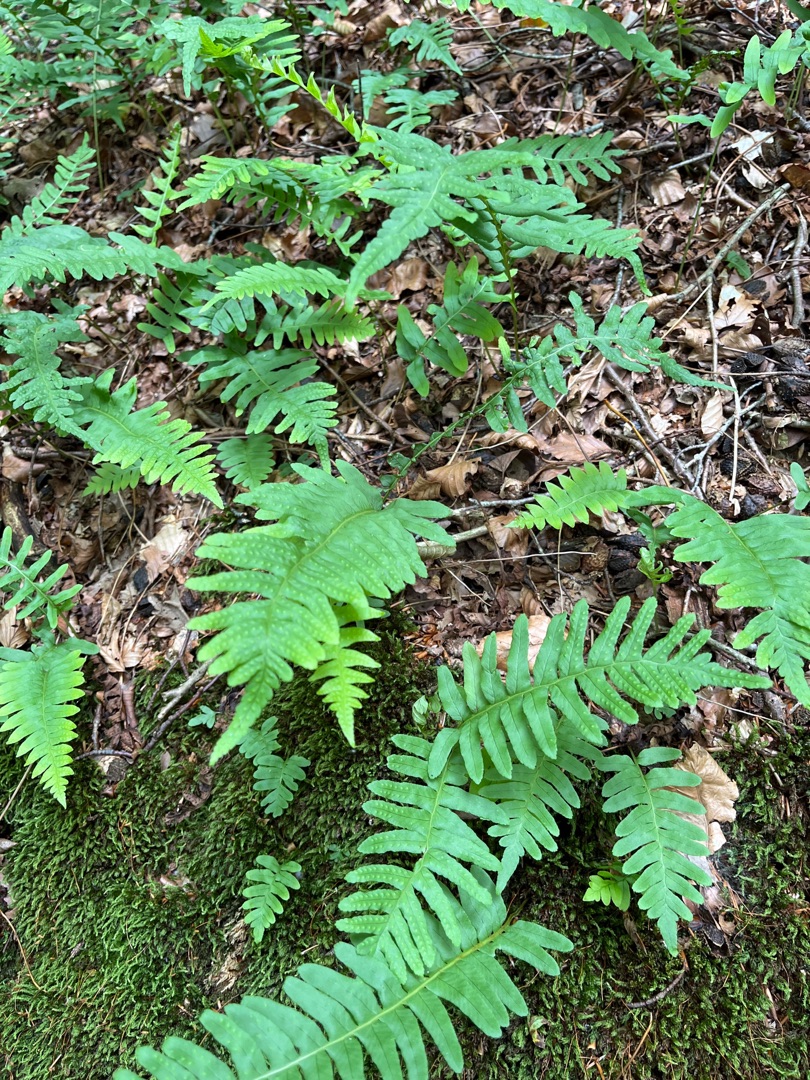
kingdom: Plantae
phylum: Tracheophyta
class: Polypodiopsida
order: Polypodiales
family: Polypodiaceae
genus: Polypodium
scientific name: Polypodium vulgare
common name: Almindelig engelsød
